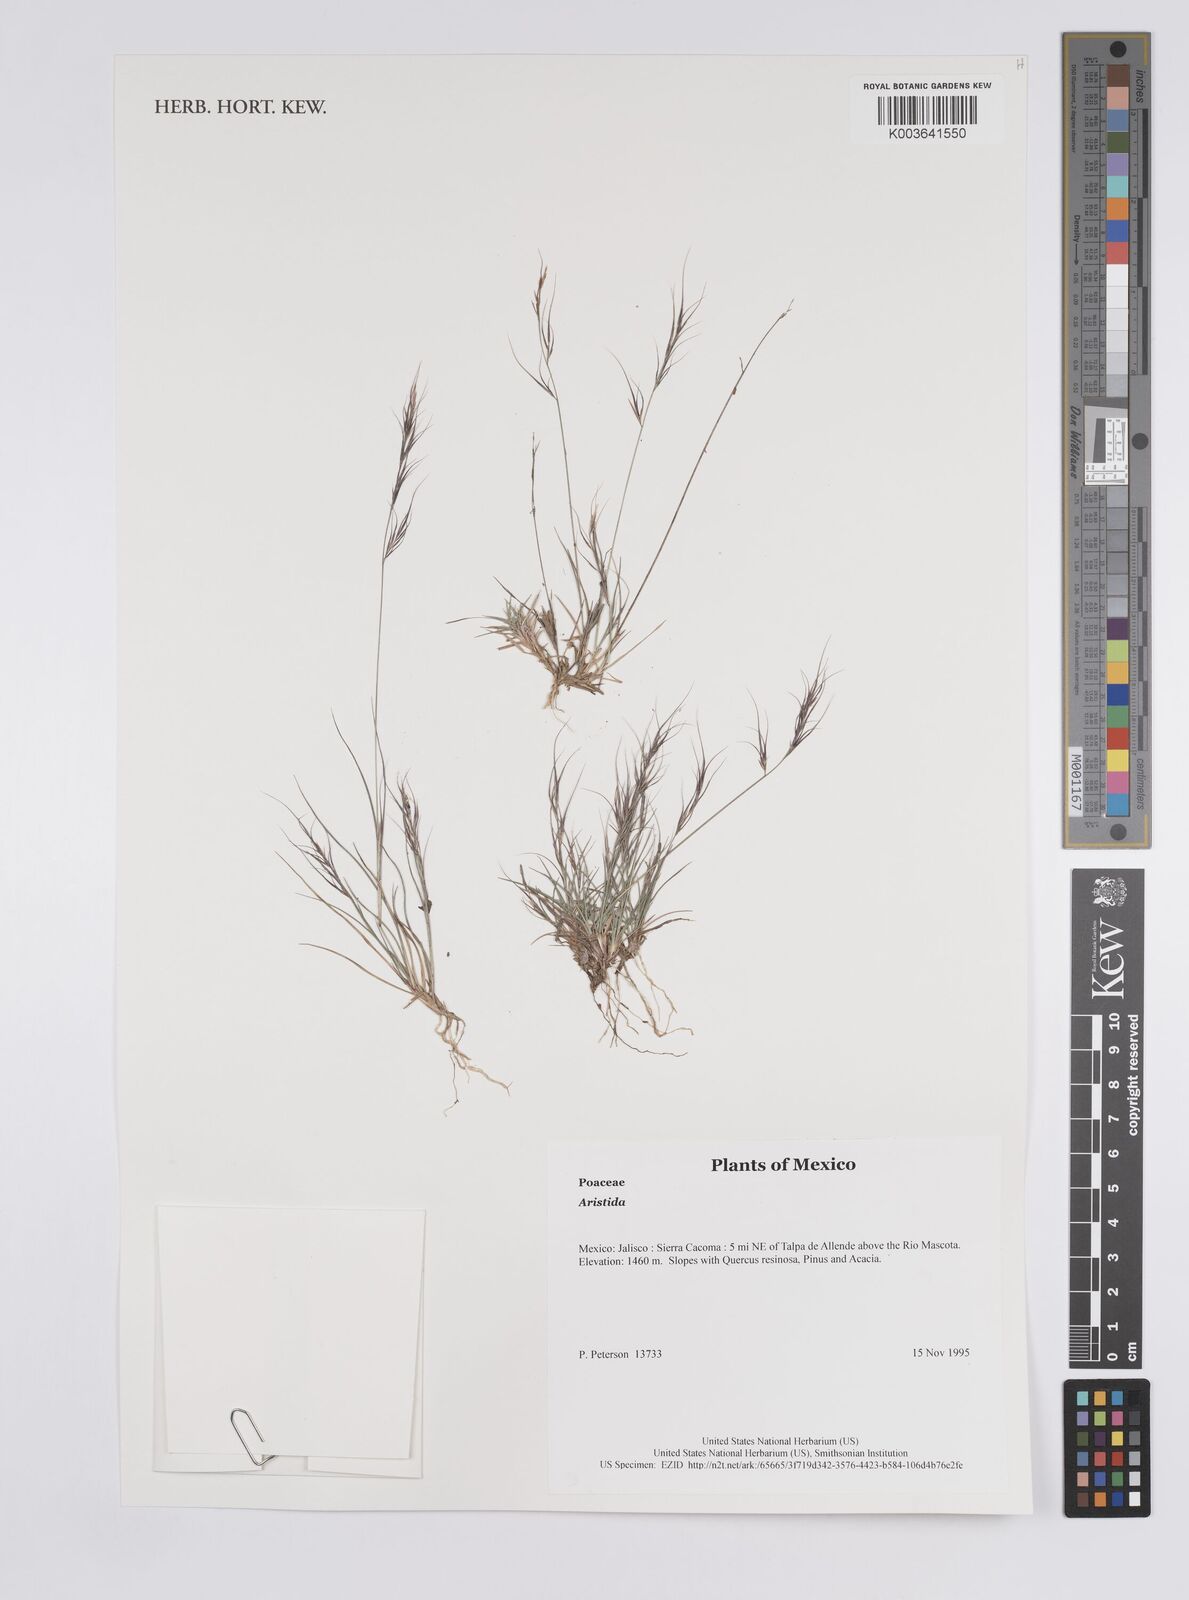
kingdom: Plantae
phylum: Tracheophyta
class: Liliopsida
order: Poales
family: Poaceae
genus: Aristida
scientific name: Aristida
